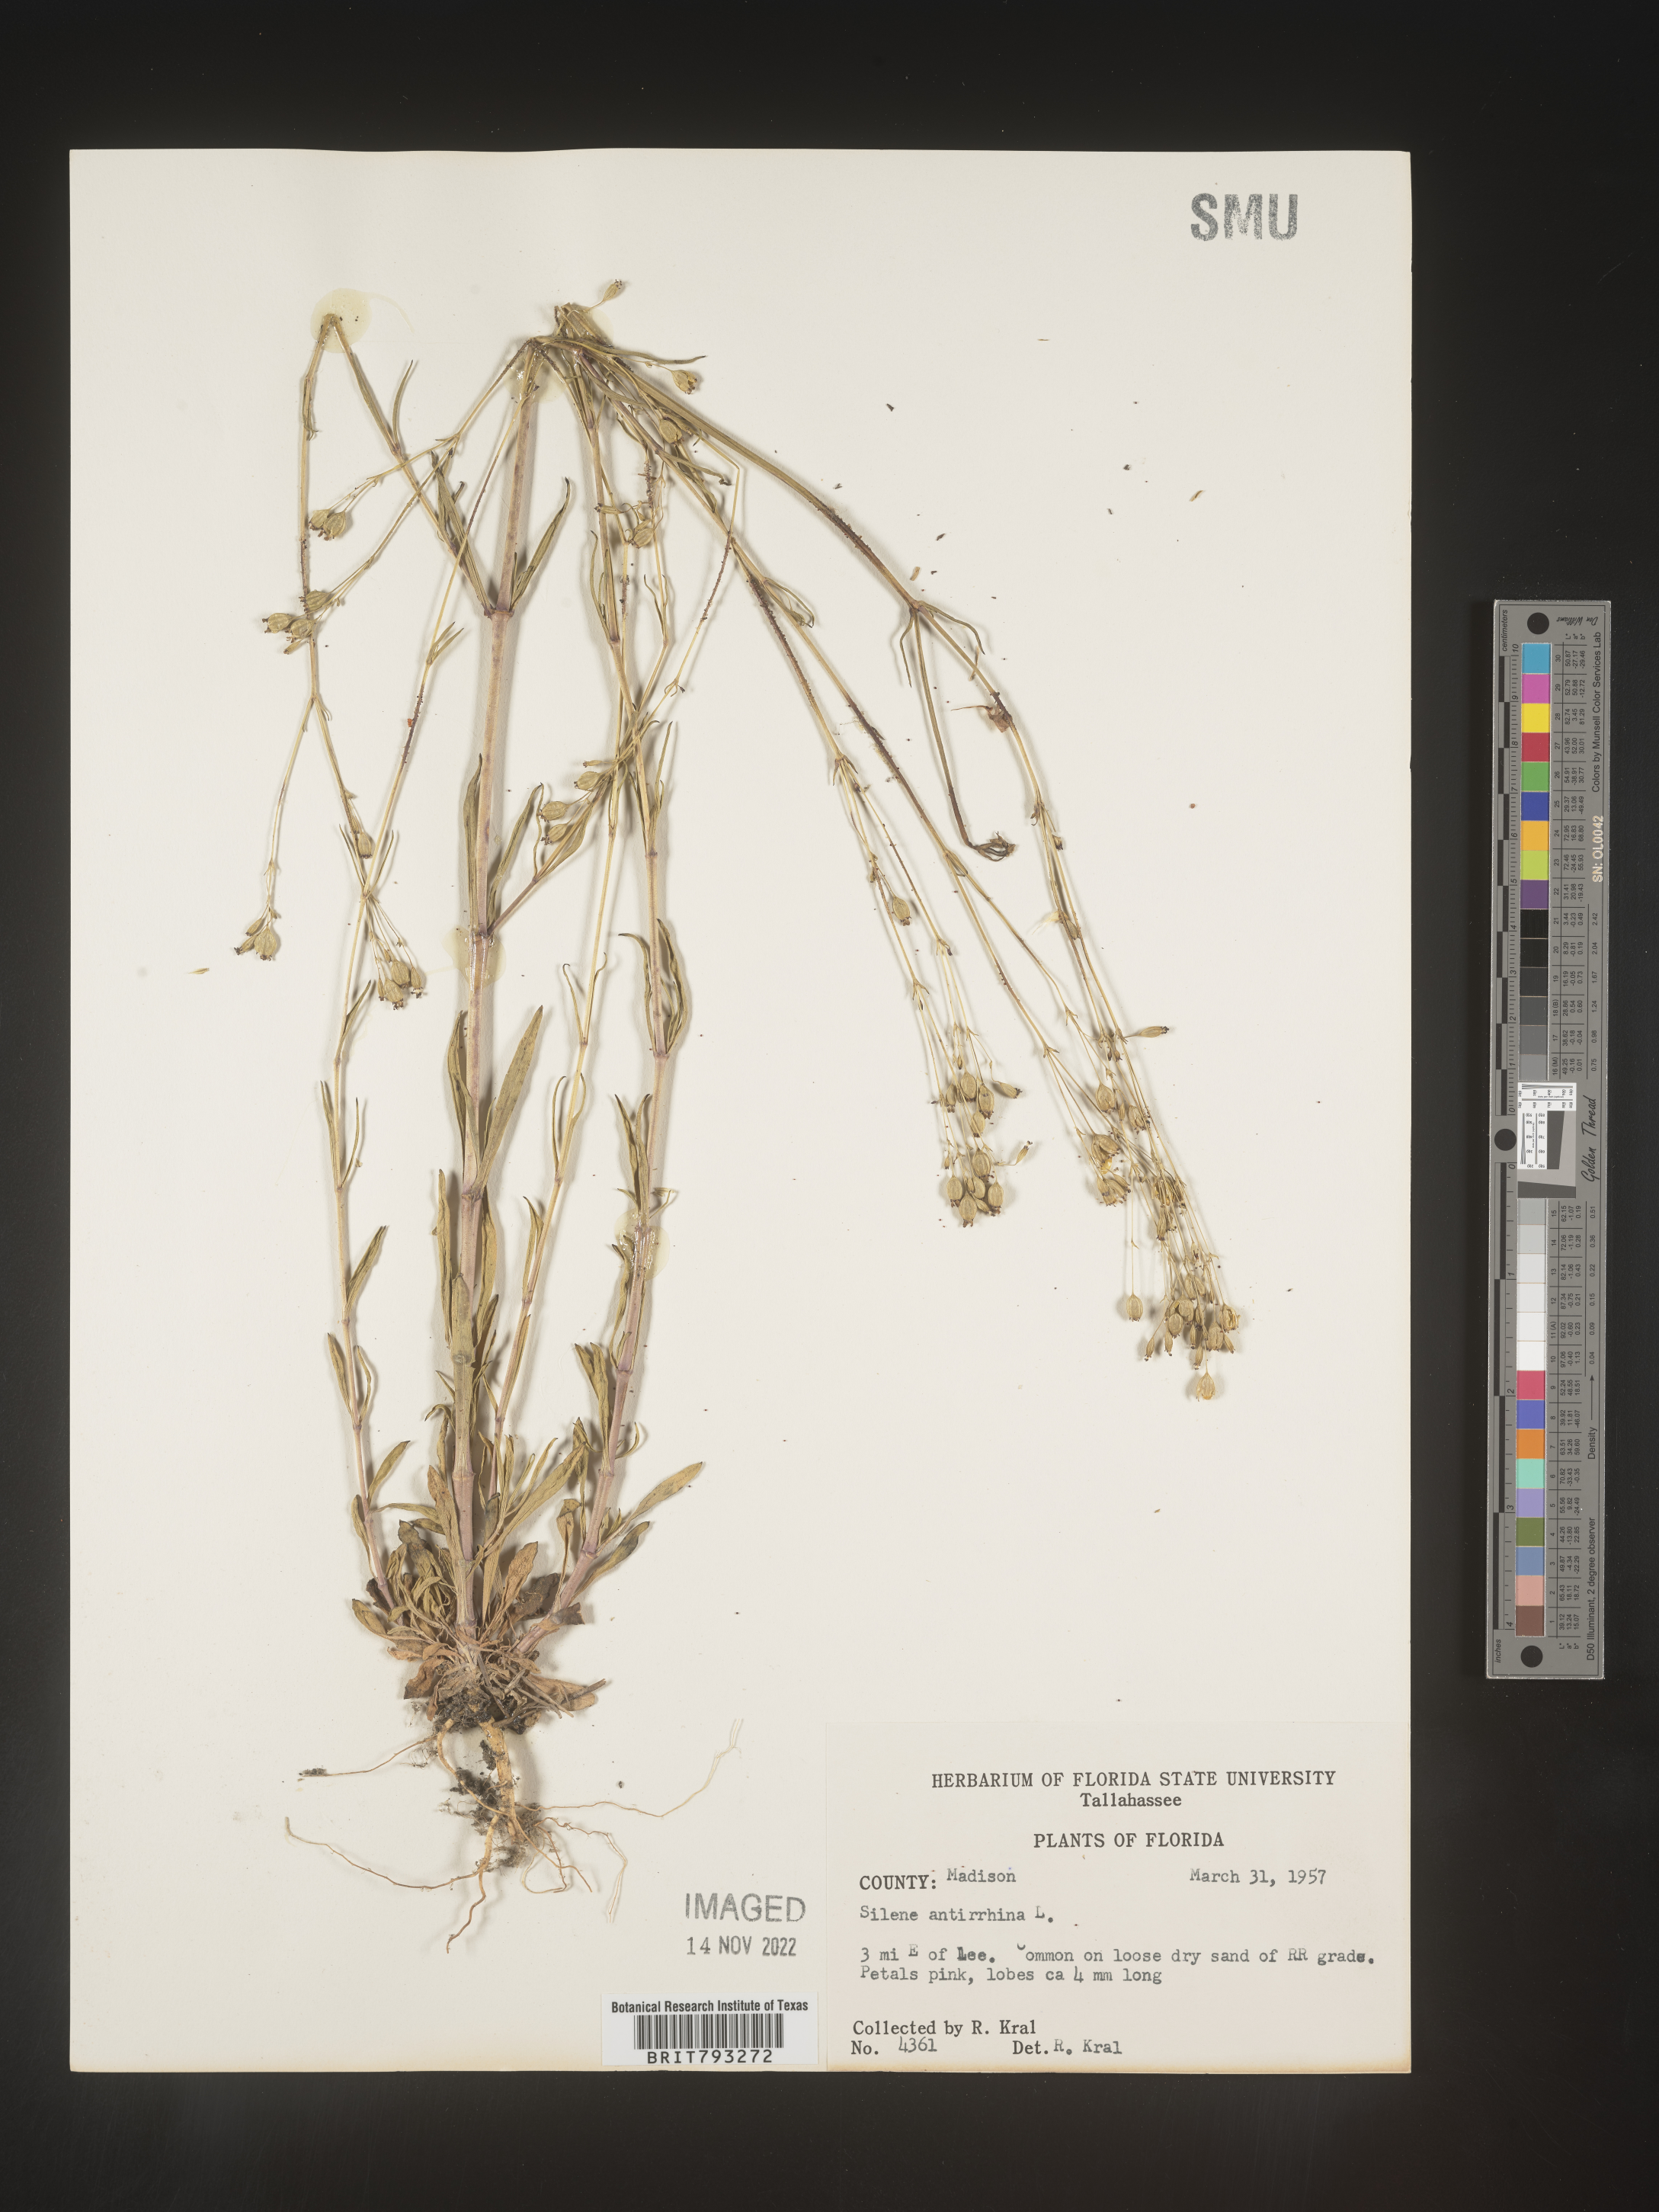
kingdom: Plantae
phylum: Tracheophyta
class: Magnoliopsida
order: Caryophyllales
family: Caryophyllaceae
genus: Silene
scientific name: Silene antirrhina
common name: Sleepy catchfly
